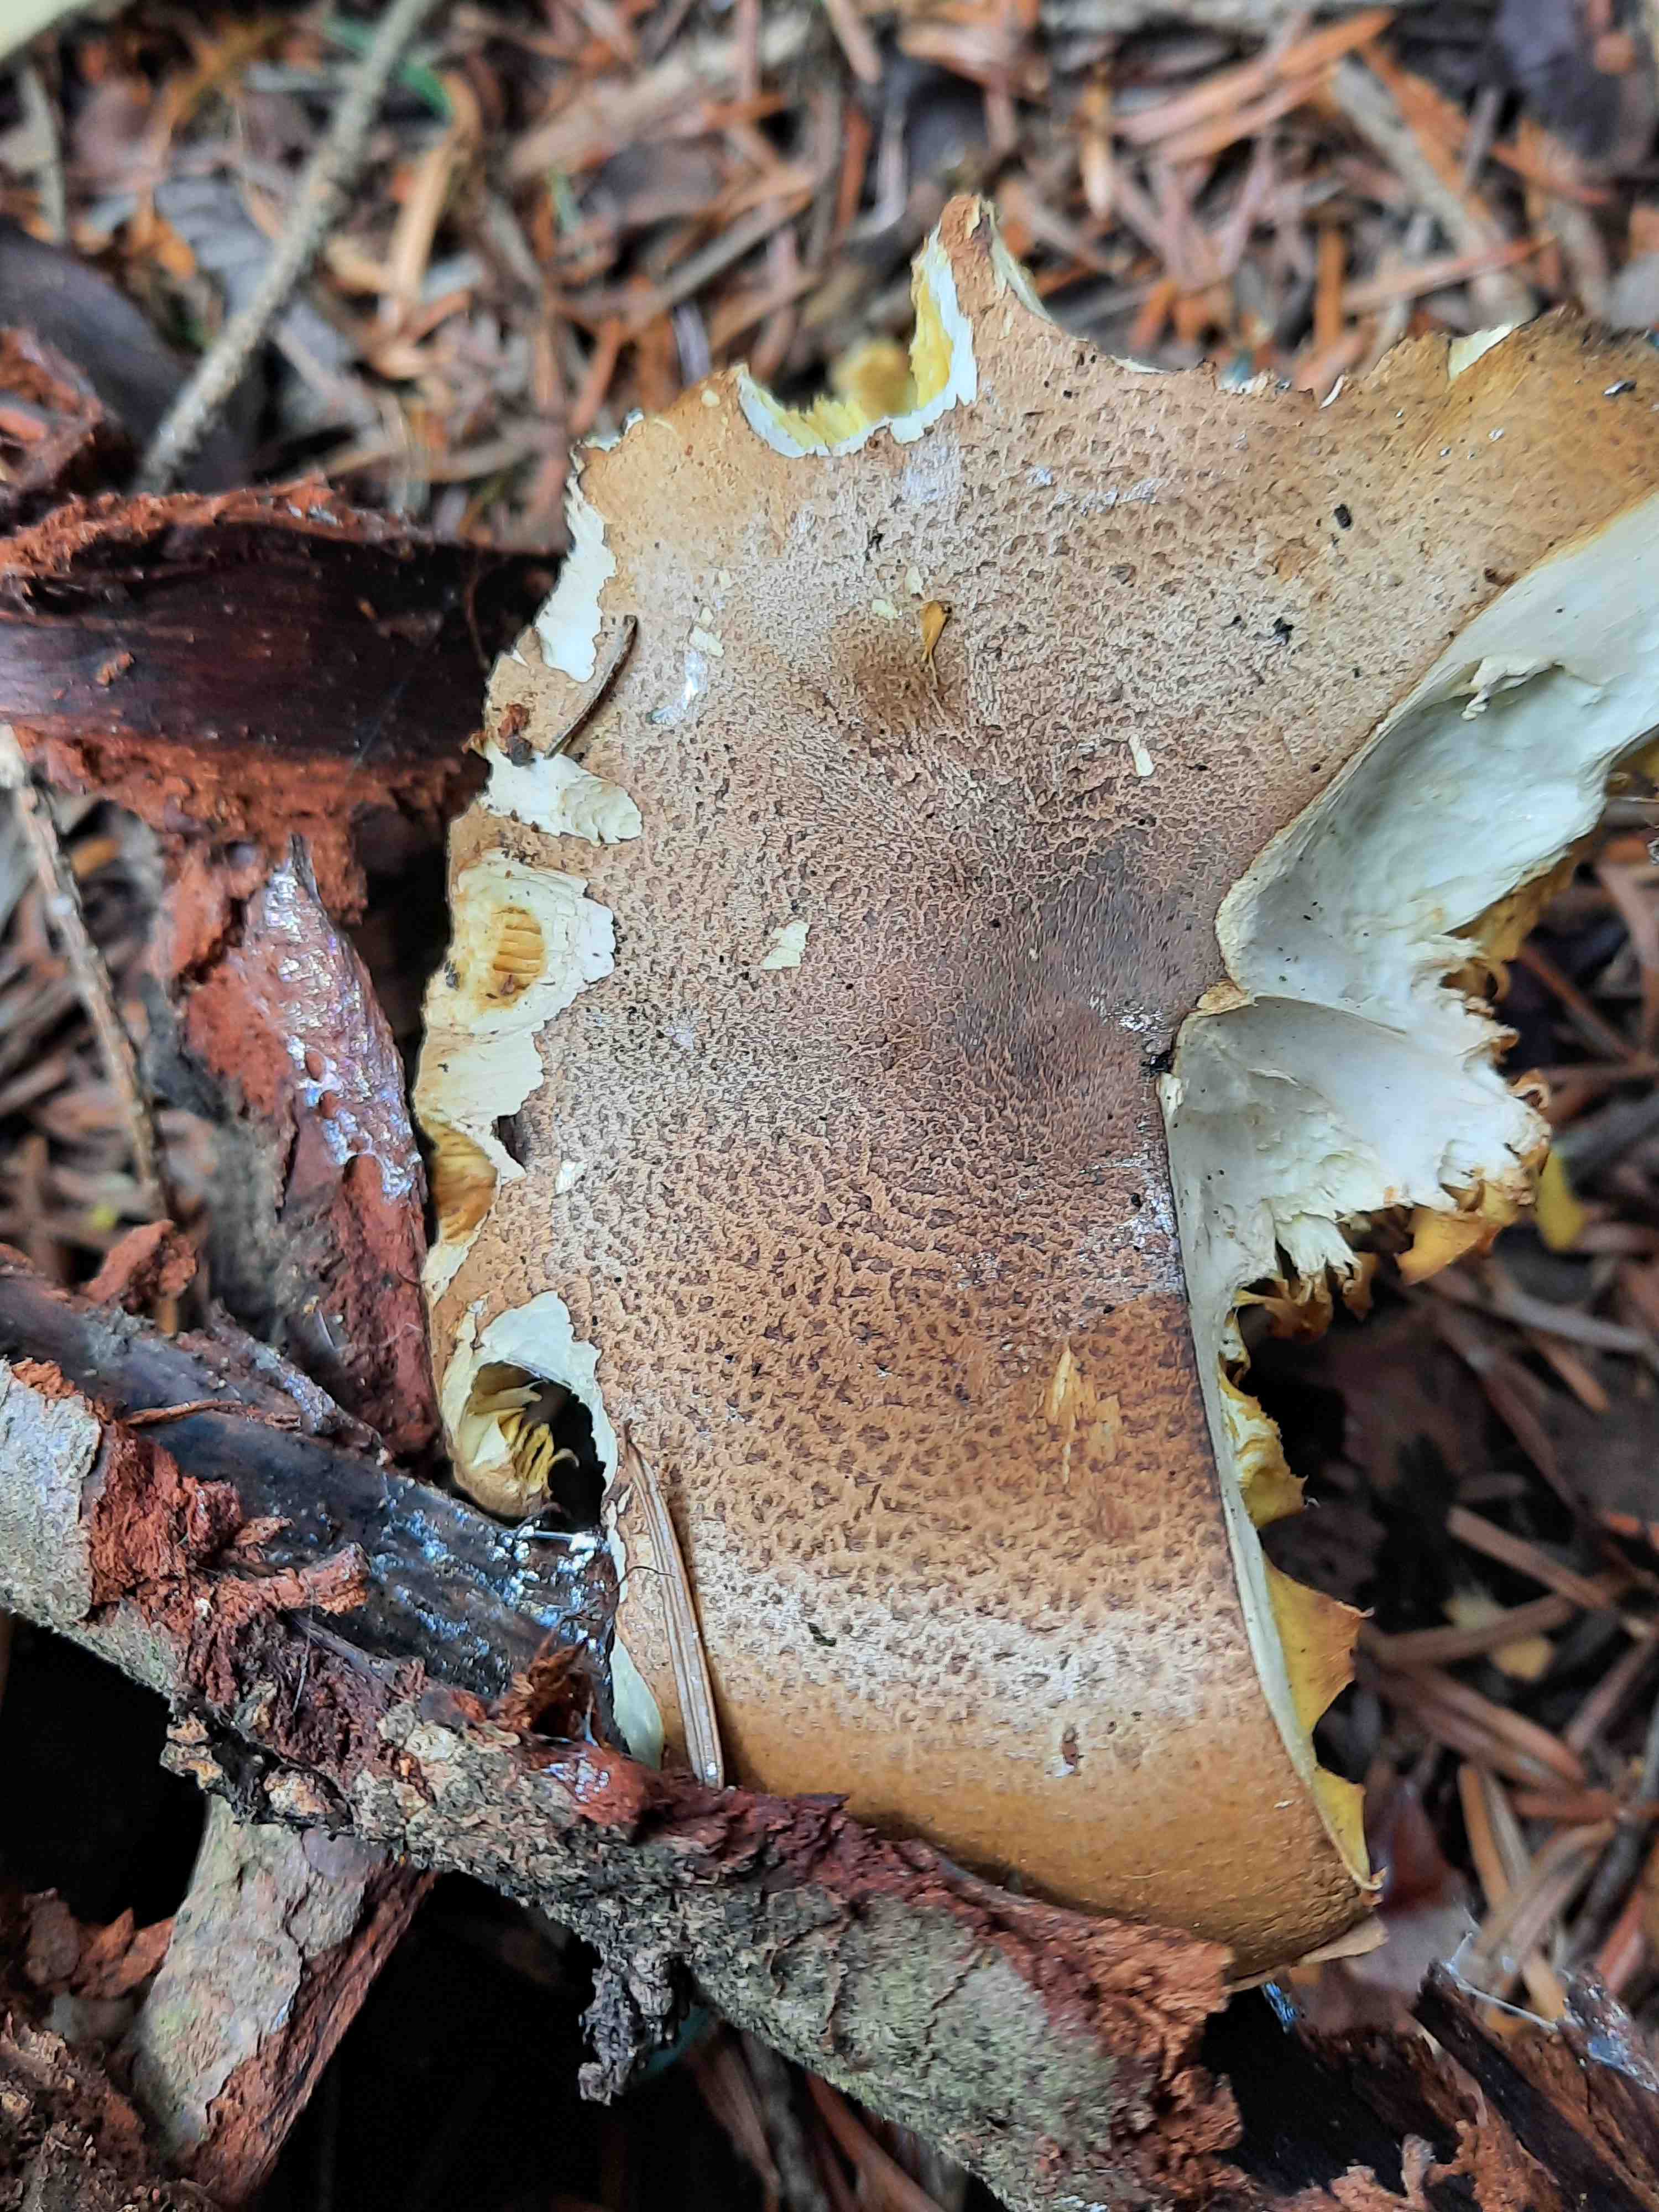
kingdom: Fungi
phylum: Basidiomycota
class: Agaricomycetes
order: Agaricales
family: Tricholomataceae
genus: Tricholoma
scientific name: Tricholoma equestre
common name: ægte ridderhat
